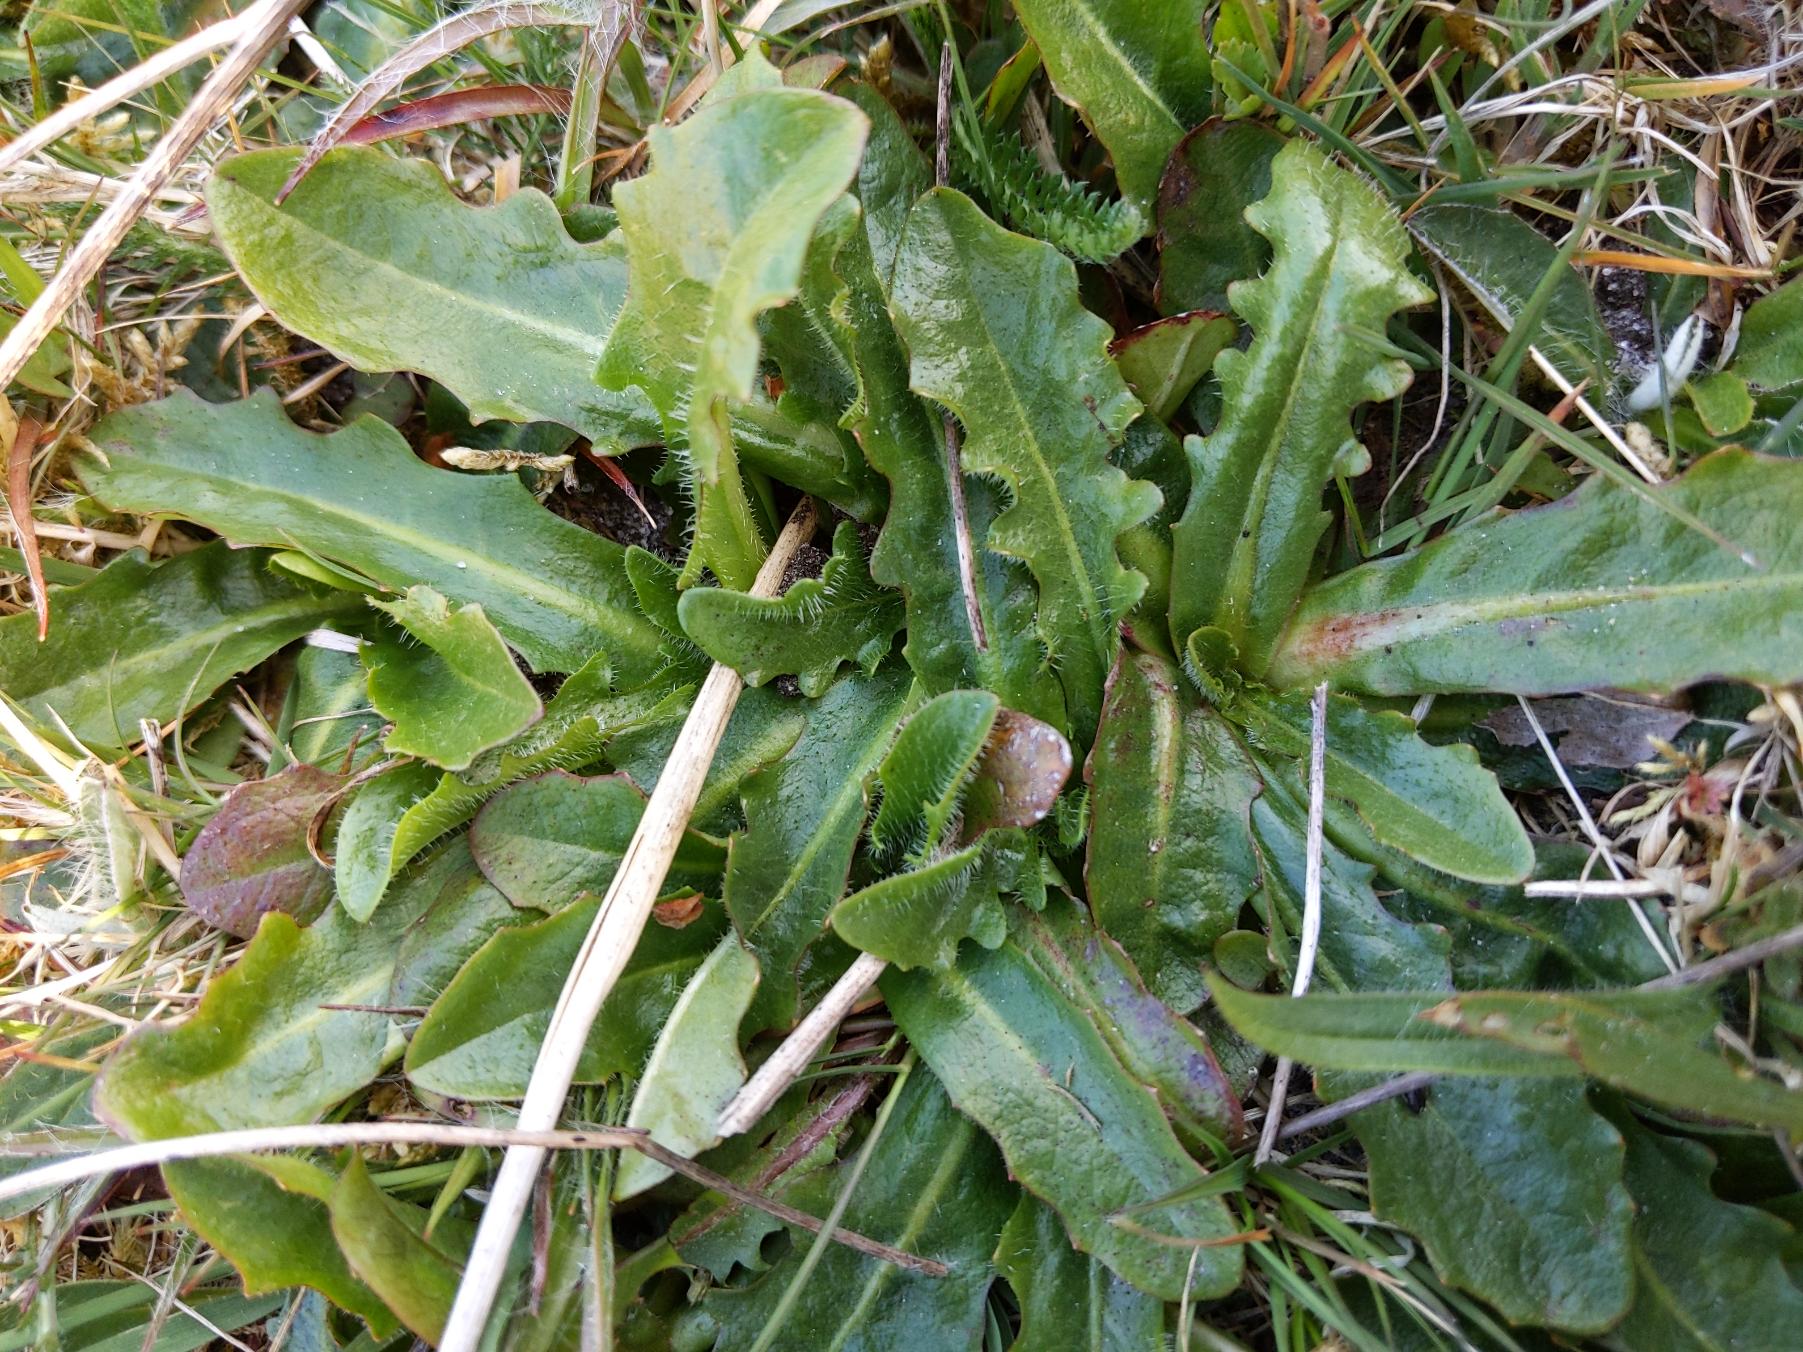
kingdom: Plantae
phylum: Tracheophyta
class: Magnoliopsida
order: Asterales
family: Asteraceae
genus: Hypochaeris
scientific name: Hypochaeris radicata
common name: Almindelig kongepen
